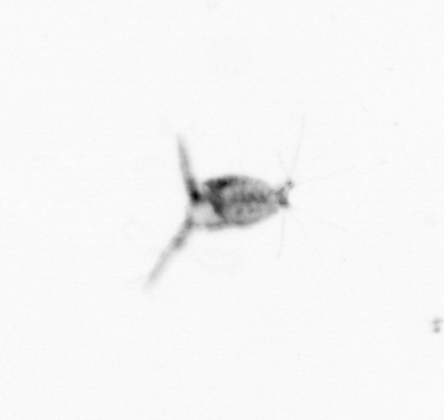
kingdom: Animalia
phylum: Arthropoda
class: Copepoda
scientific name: Copepoda
